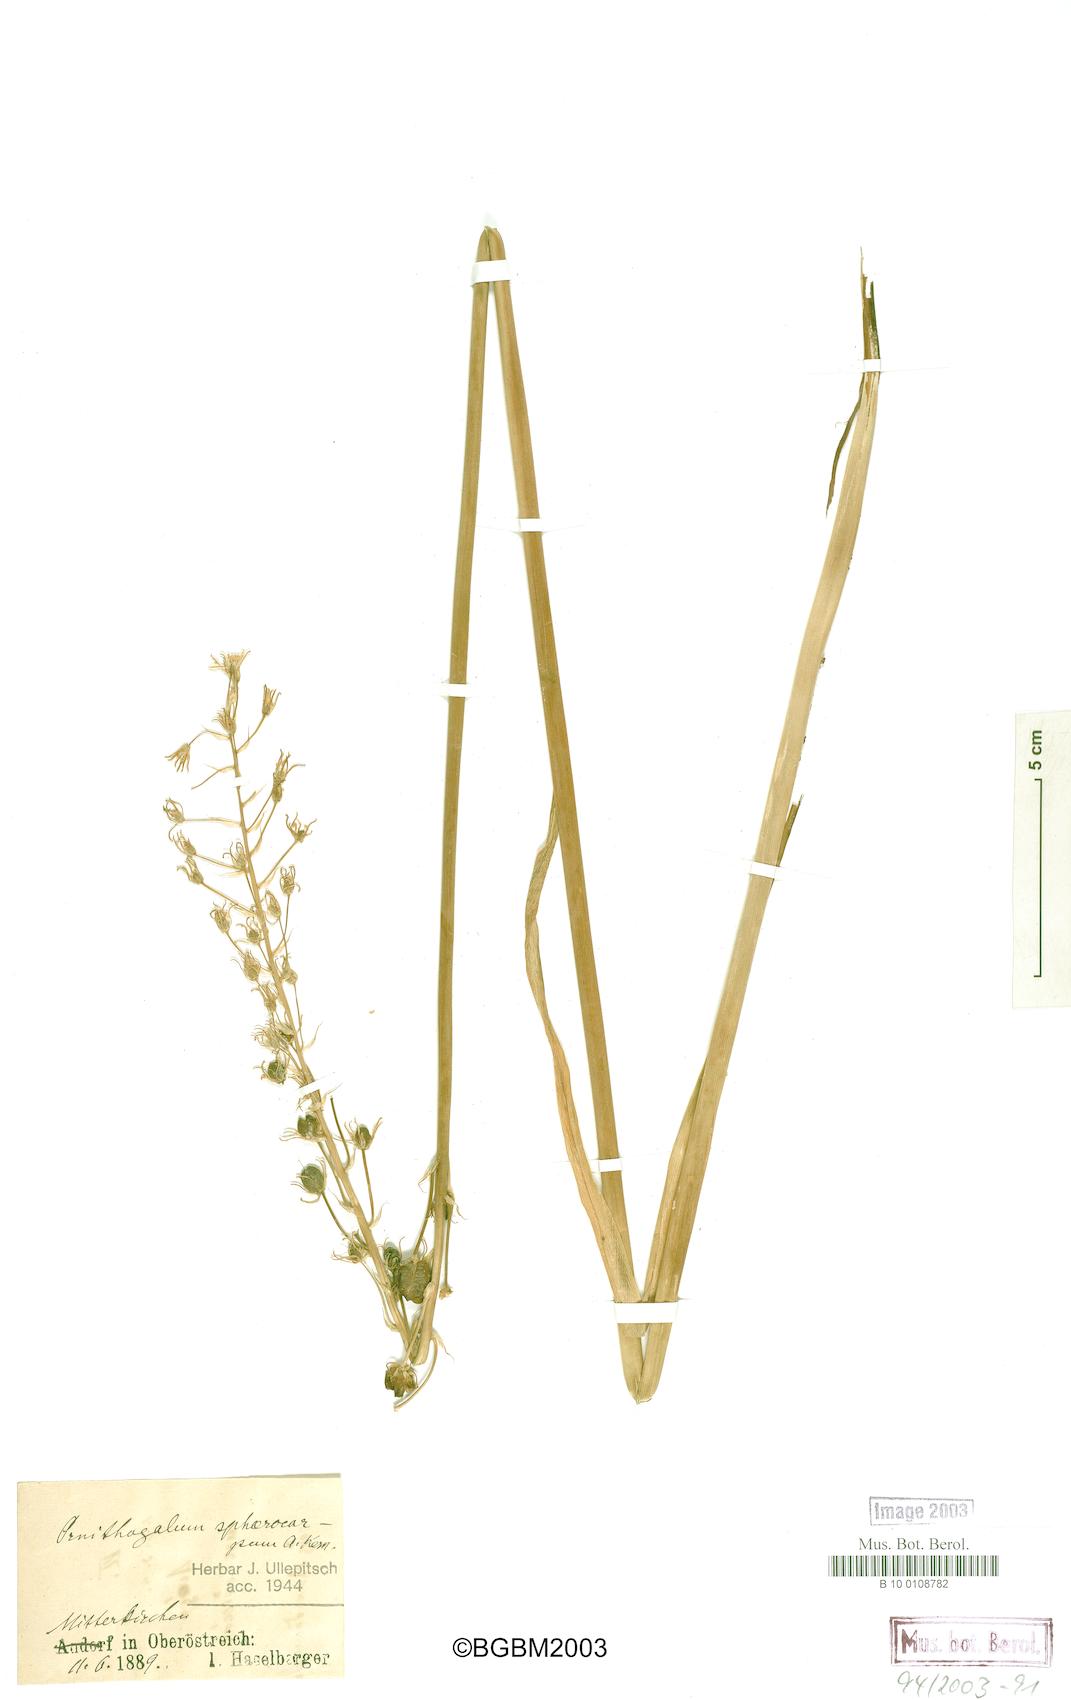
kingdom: Plantae
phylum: Tracheophyta
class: Liliopsida
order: Asparagales
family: Asparagaceae
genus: Ornithogalum
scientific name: Ornithogalum sphaerocarpum
